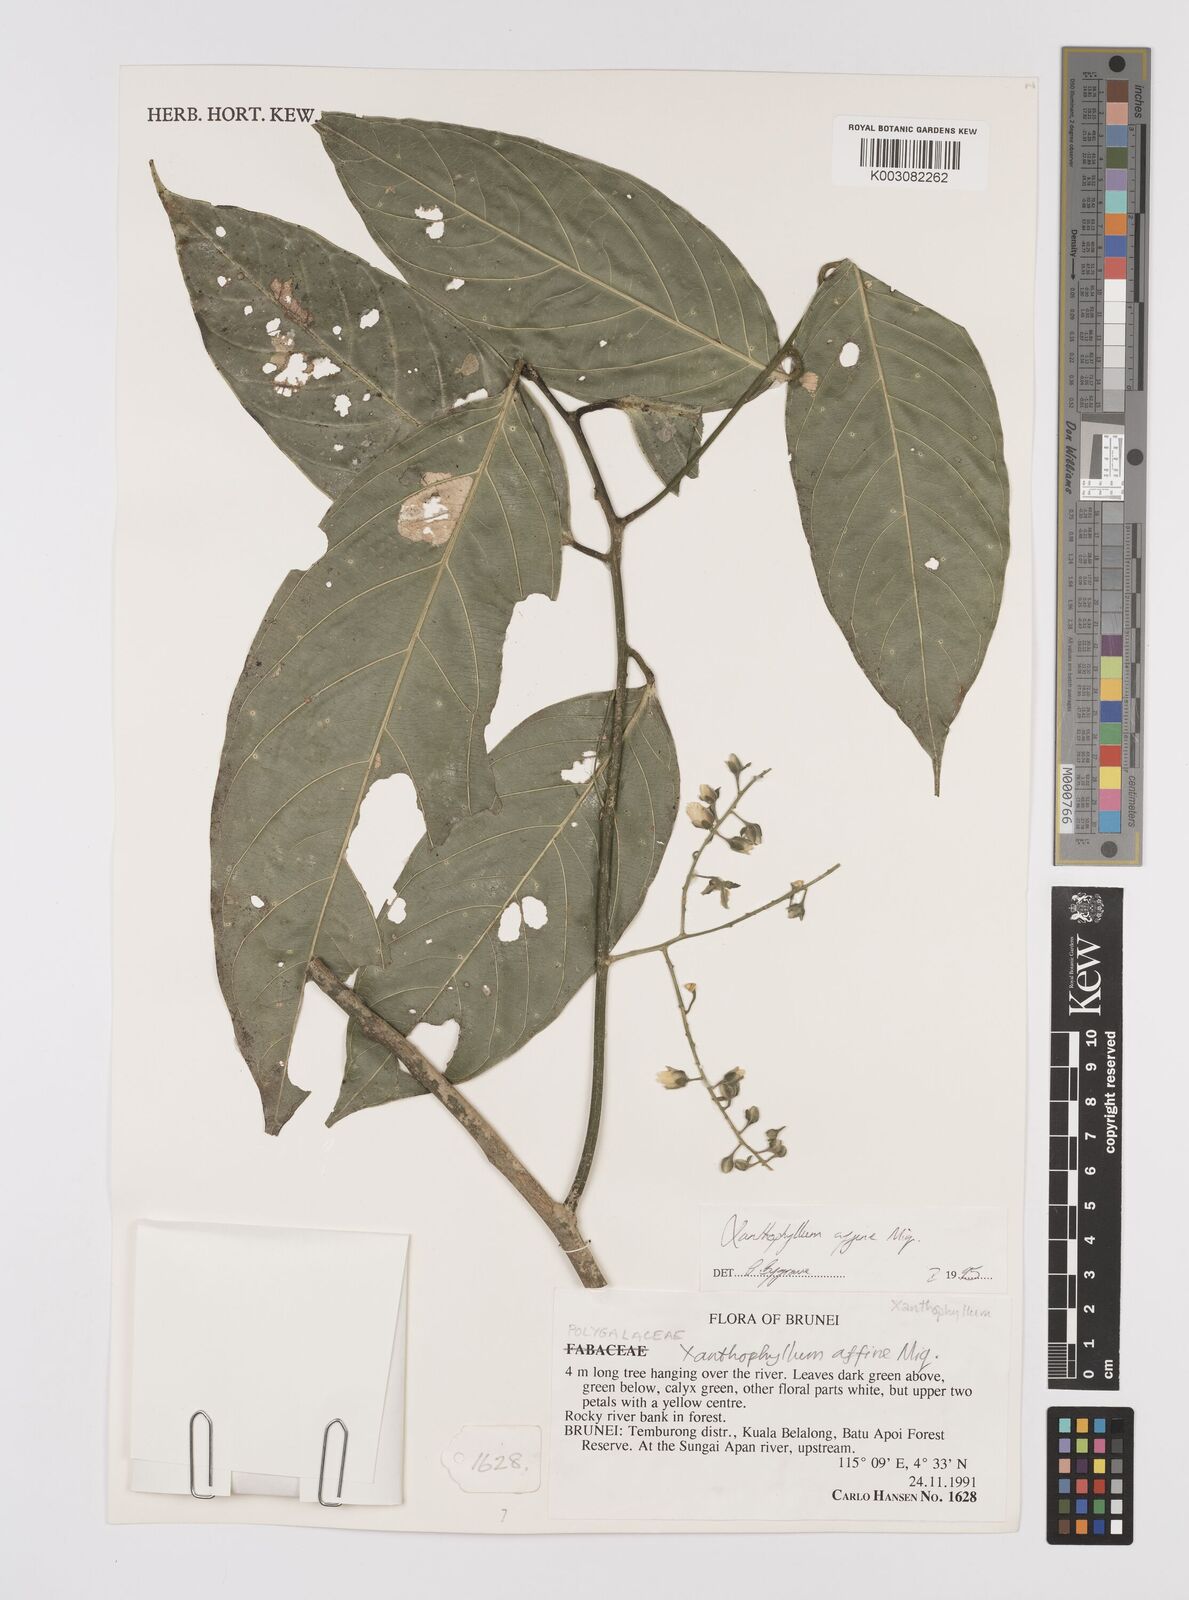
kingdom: Plantae
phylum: Tracheophyta
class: Magnoliopsida
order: Fabales
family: Polygalaceae
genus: Xanthophyllum
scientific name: Xanthophyllum flavescens
